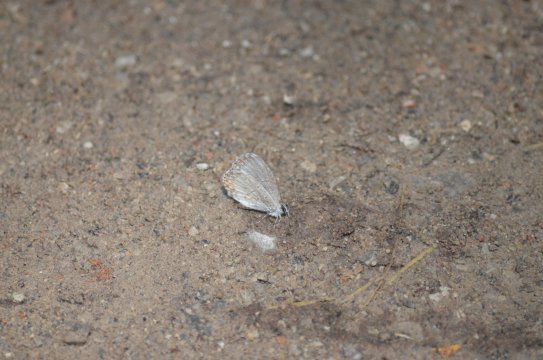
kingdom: Animalia
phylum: Arthropoda
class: Insecta
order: Lepidoptera
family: Lycaenidae
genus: Cyaniris
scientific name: Cyaniris neglecta
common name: Summer Azure
